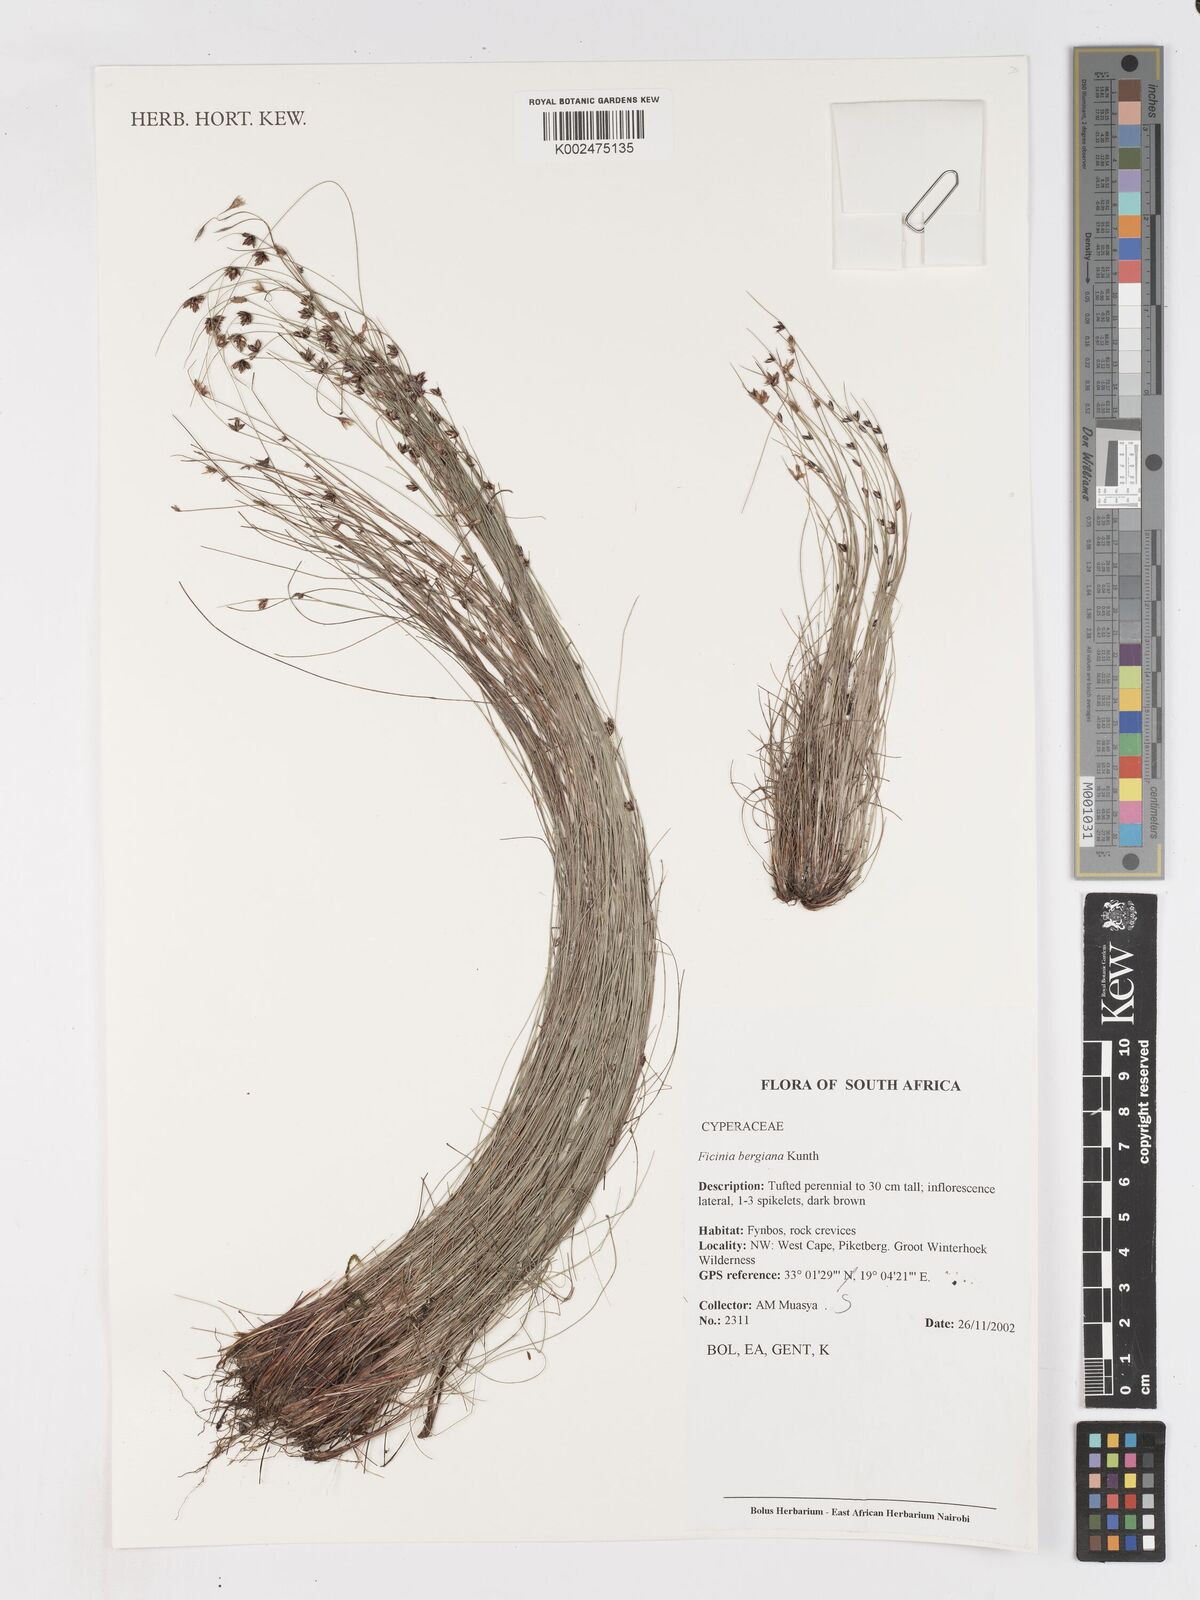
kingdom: Plantae
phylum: Tracheophyta
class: Liliopsida
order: Poales
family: Cyperaceae
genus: Ficinia
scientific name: Ficinia tristachya
